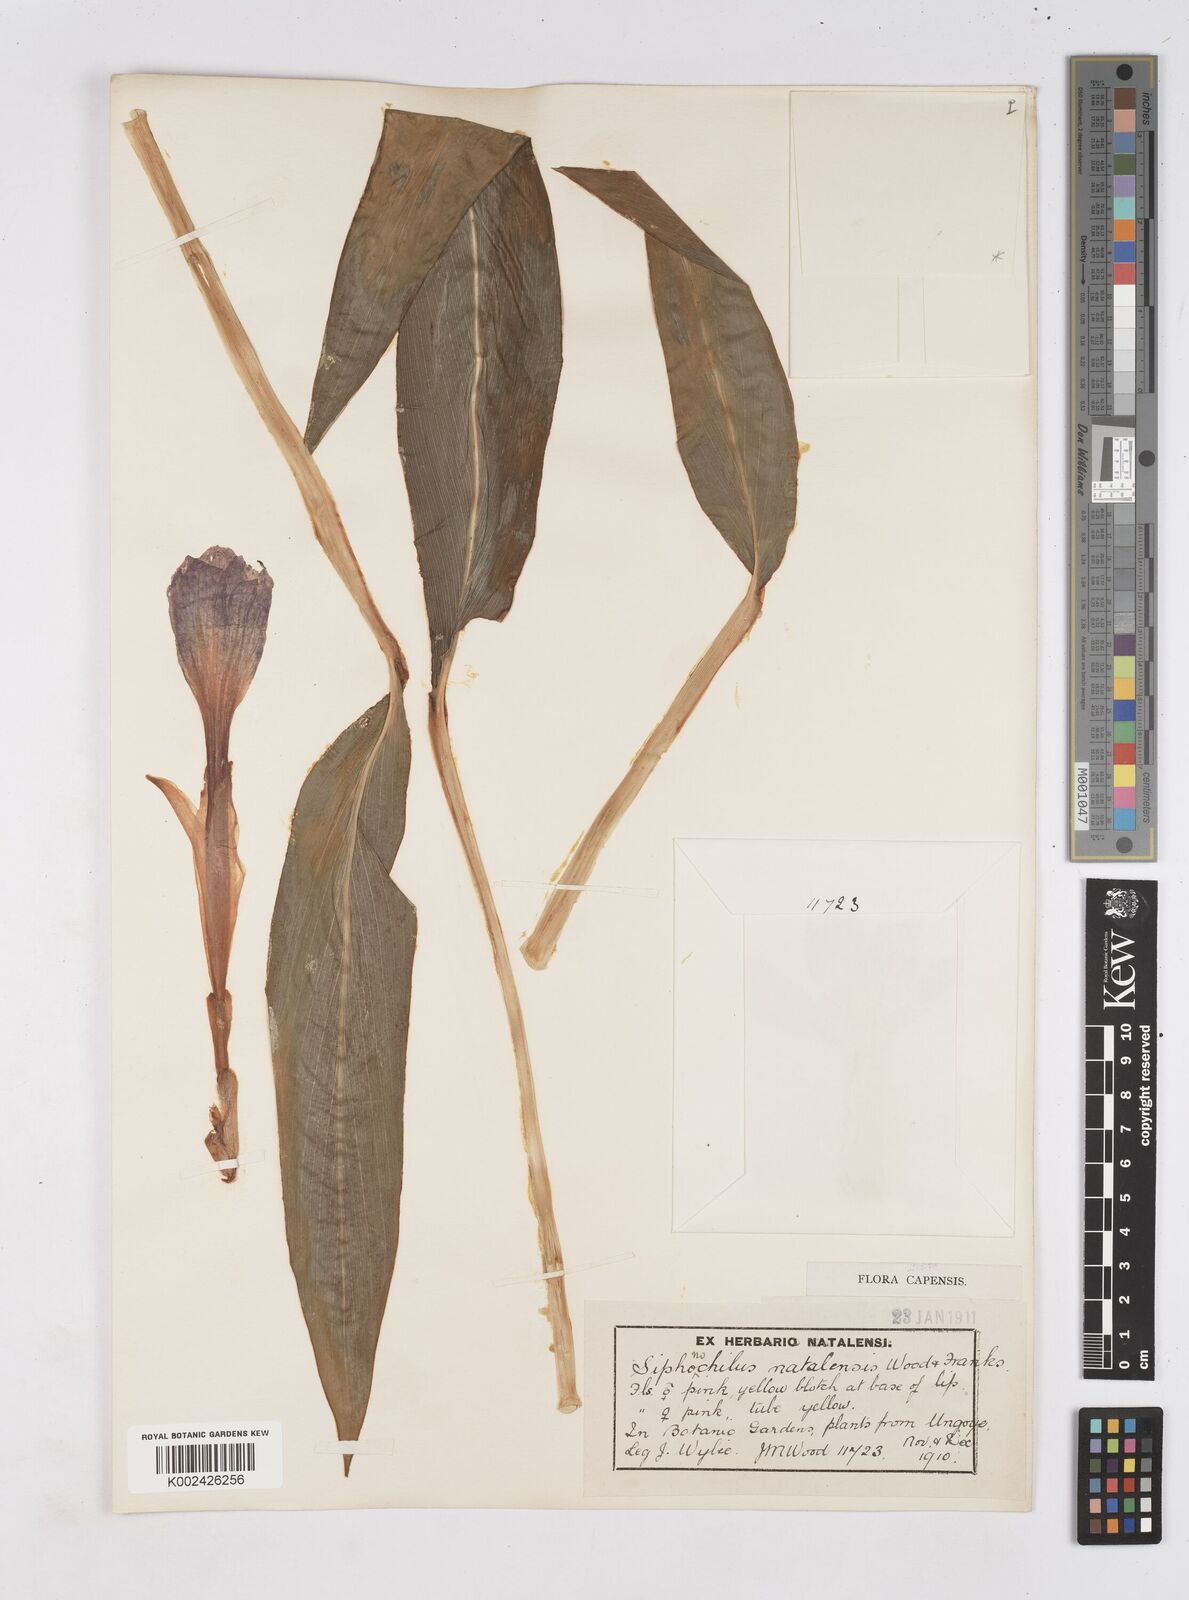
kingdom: Plantae
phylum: Tracheophyta
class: Liliopsida
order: Zingiberales
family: Zingiberaceae
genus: Siphonochilus
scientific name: Siphonochilus aethiopicus
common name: African-ginger
